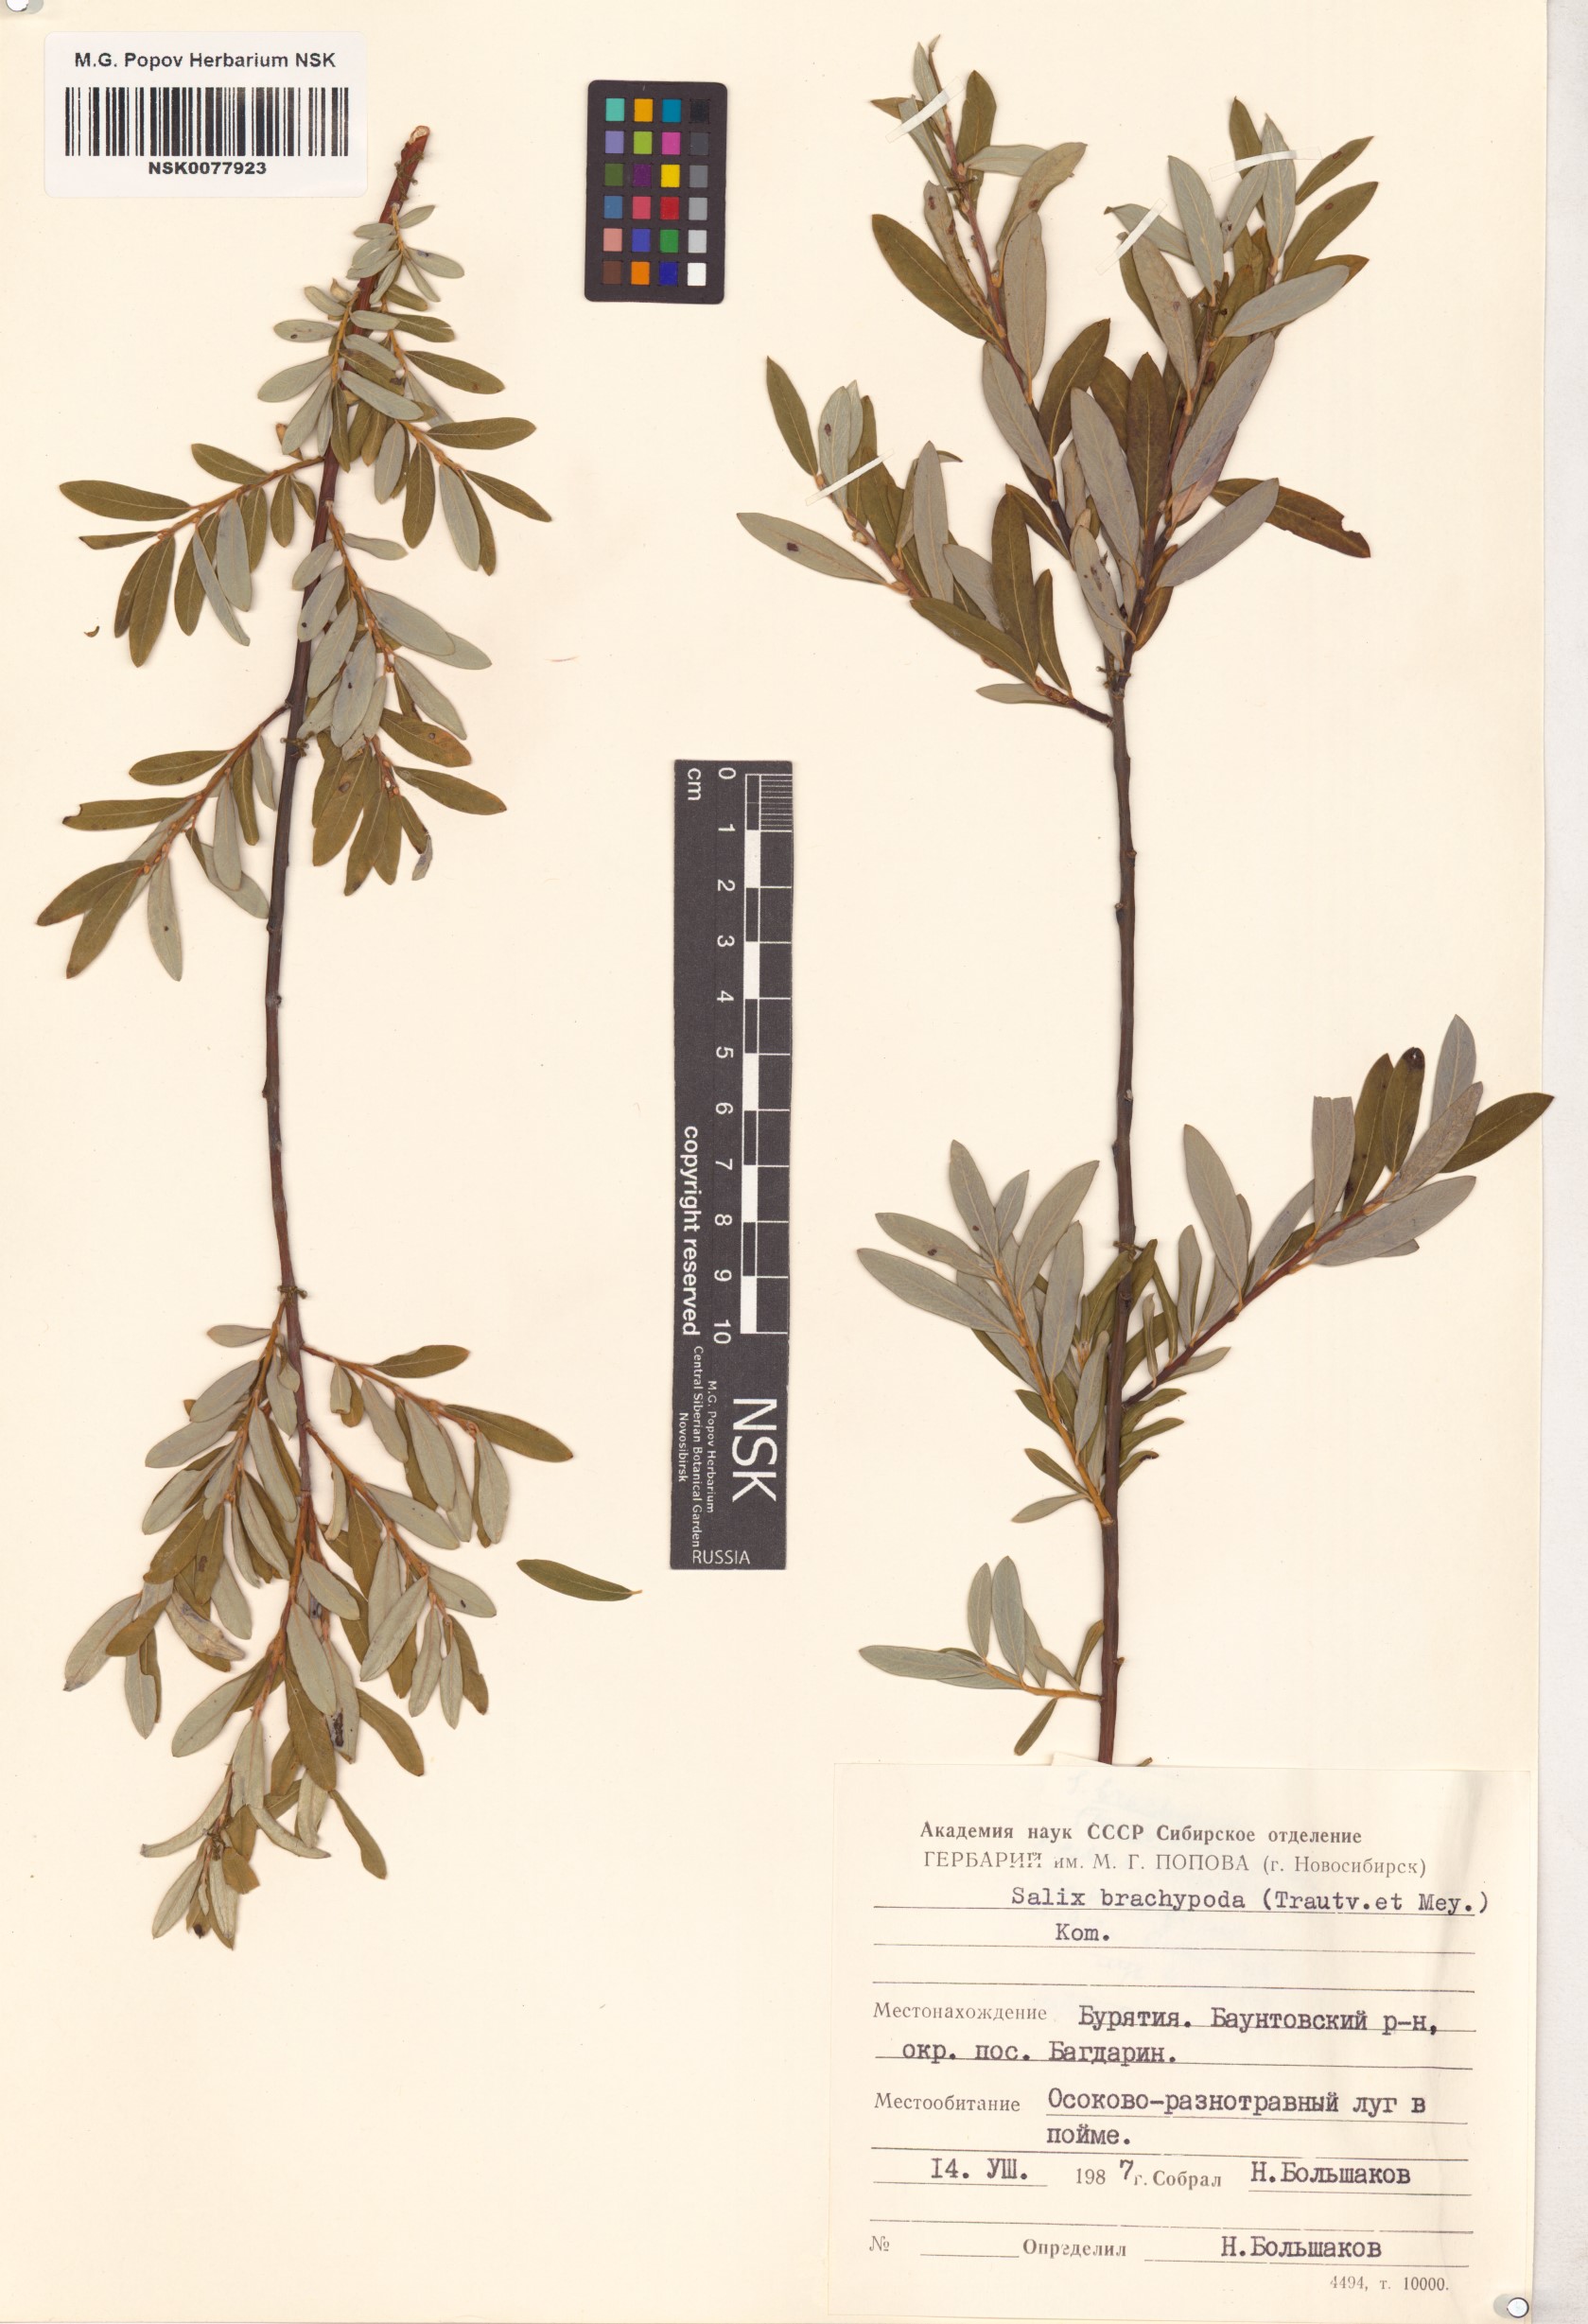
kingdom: Plantae
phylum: Tracheophyta
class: Magnoliopsida
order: Malpighiales
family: Salicaceae
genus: Salix
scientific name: Salix brachypoda
